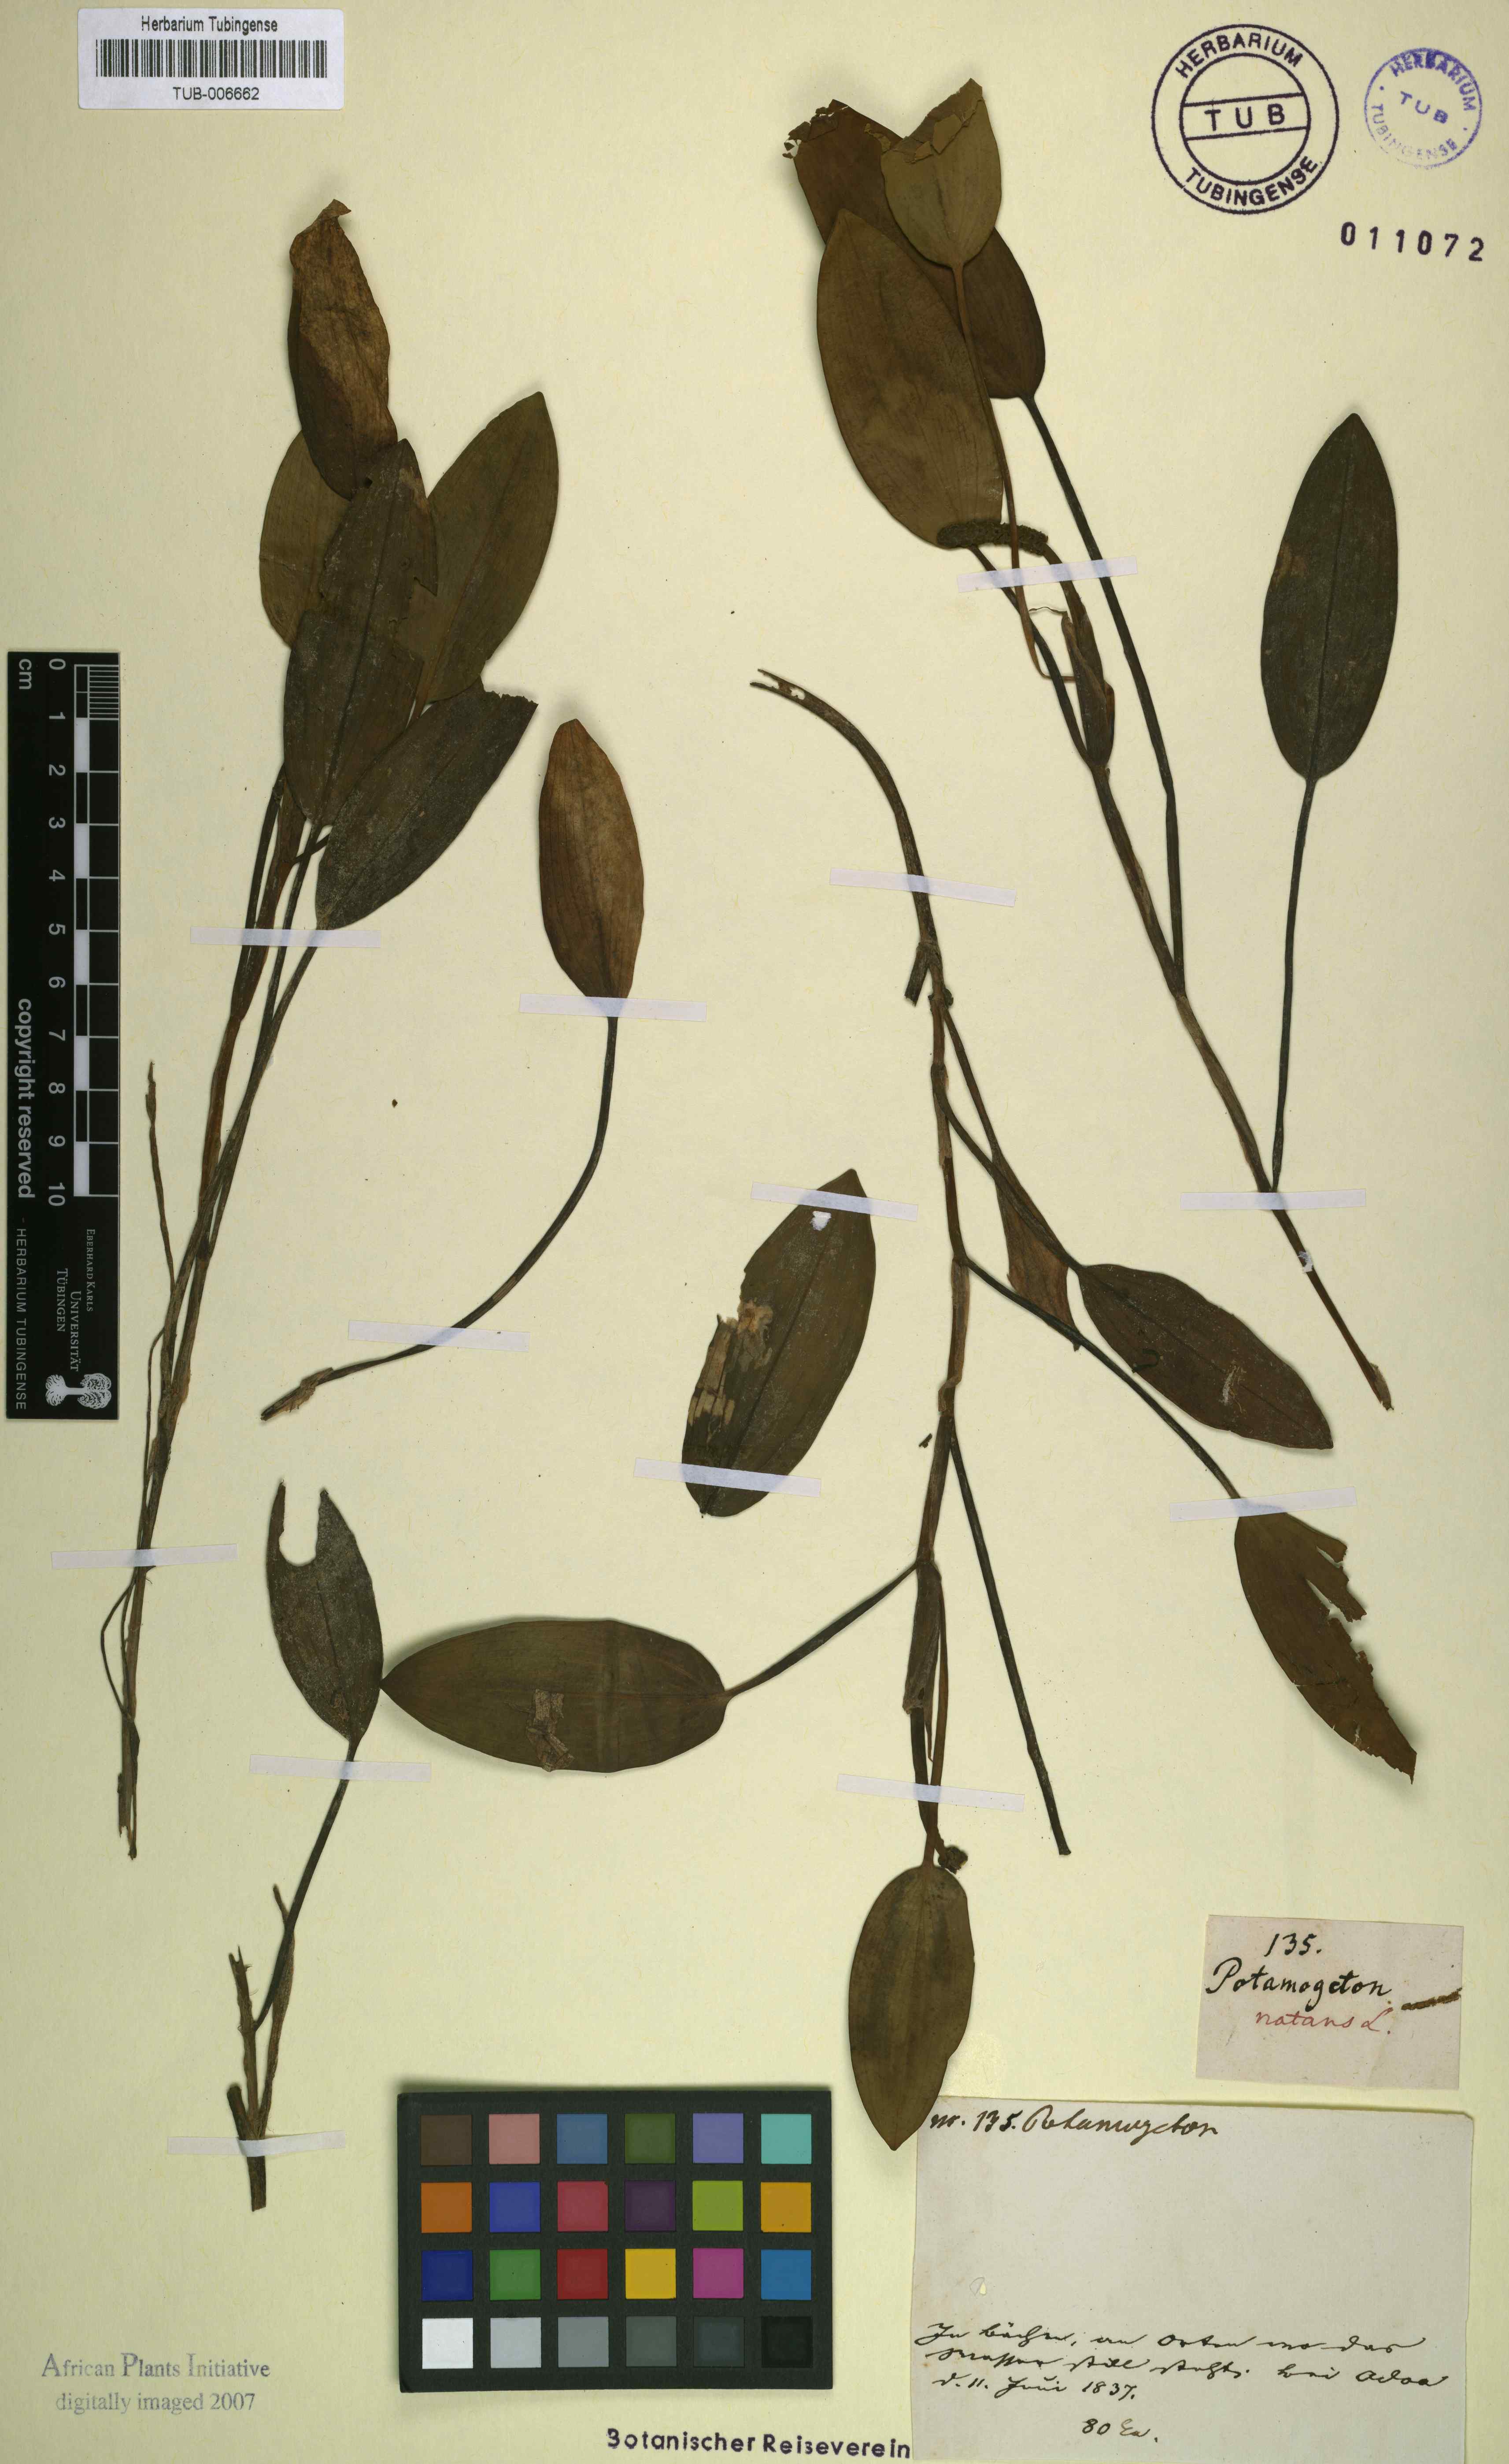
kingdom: Plantae
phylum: Tracheophyta
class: Liliopsida
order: Alismatales
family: Potamogetonaceae
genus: Potamogeton
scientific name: Potamogeton richardii
